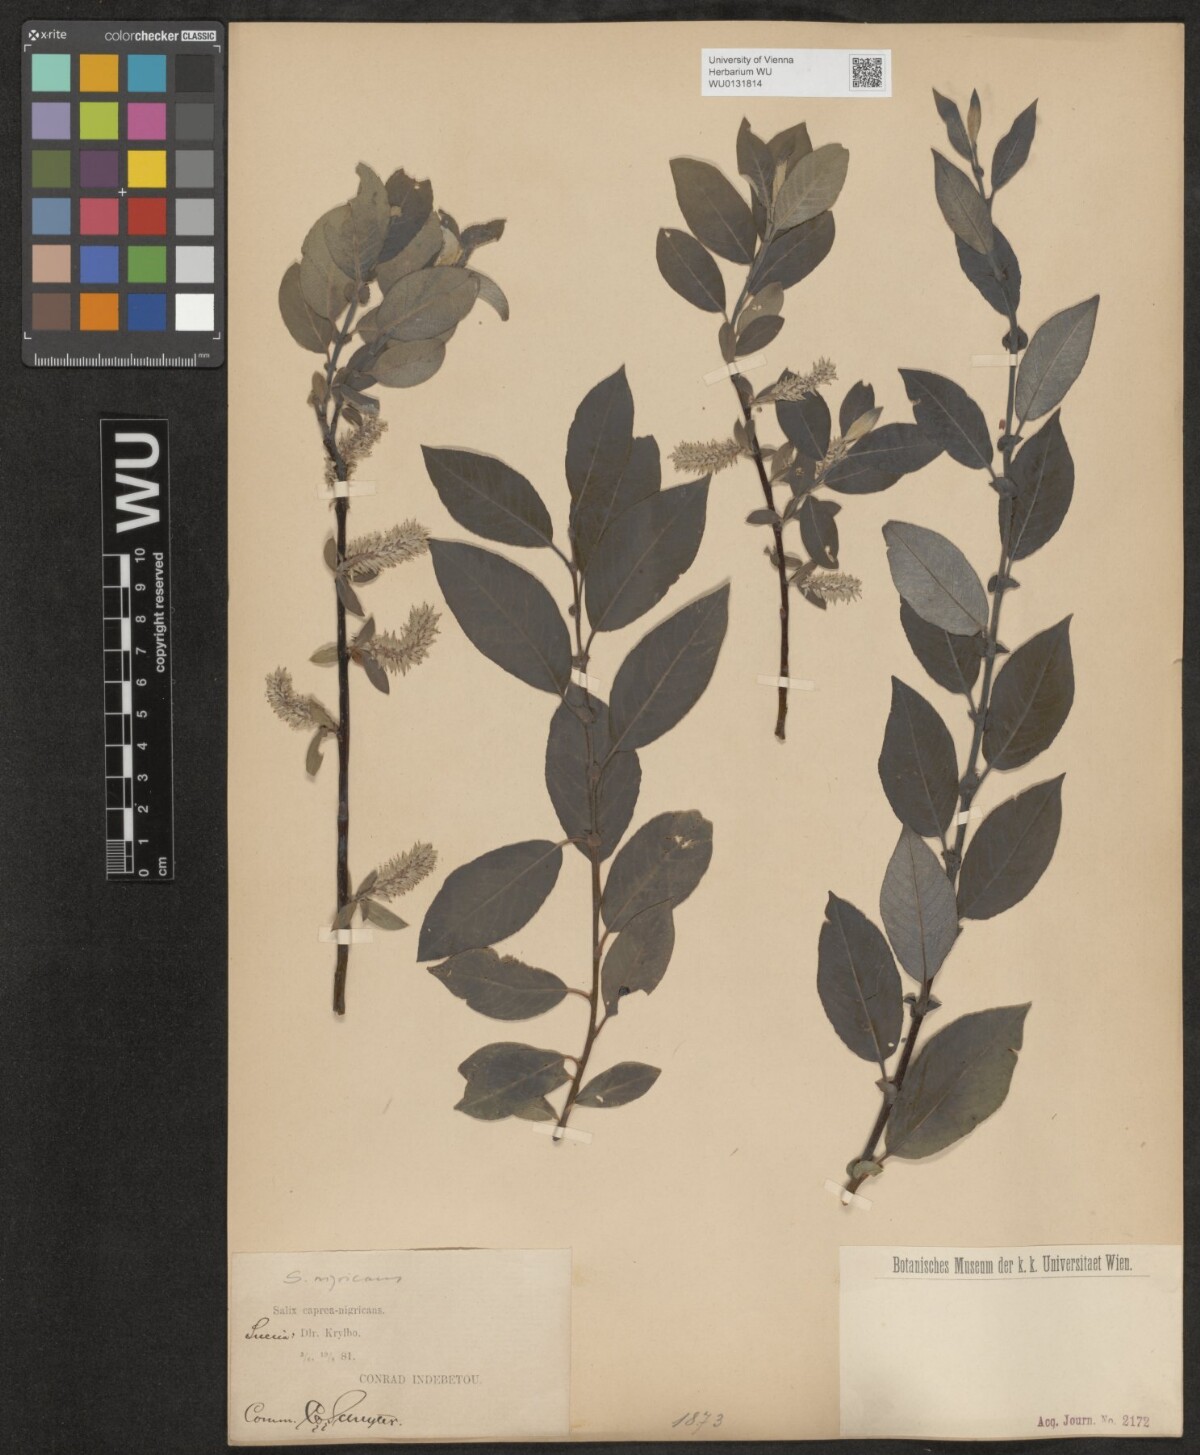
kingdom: Plantae
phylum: Tracheophyta
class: Magnoliopsida
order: Malpighiales
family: Salicaceae
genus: Salix
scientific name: Salix myrsinifolia
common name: Dark-leaved willow
